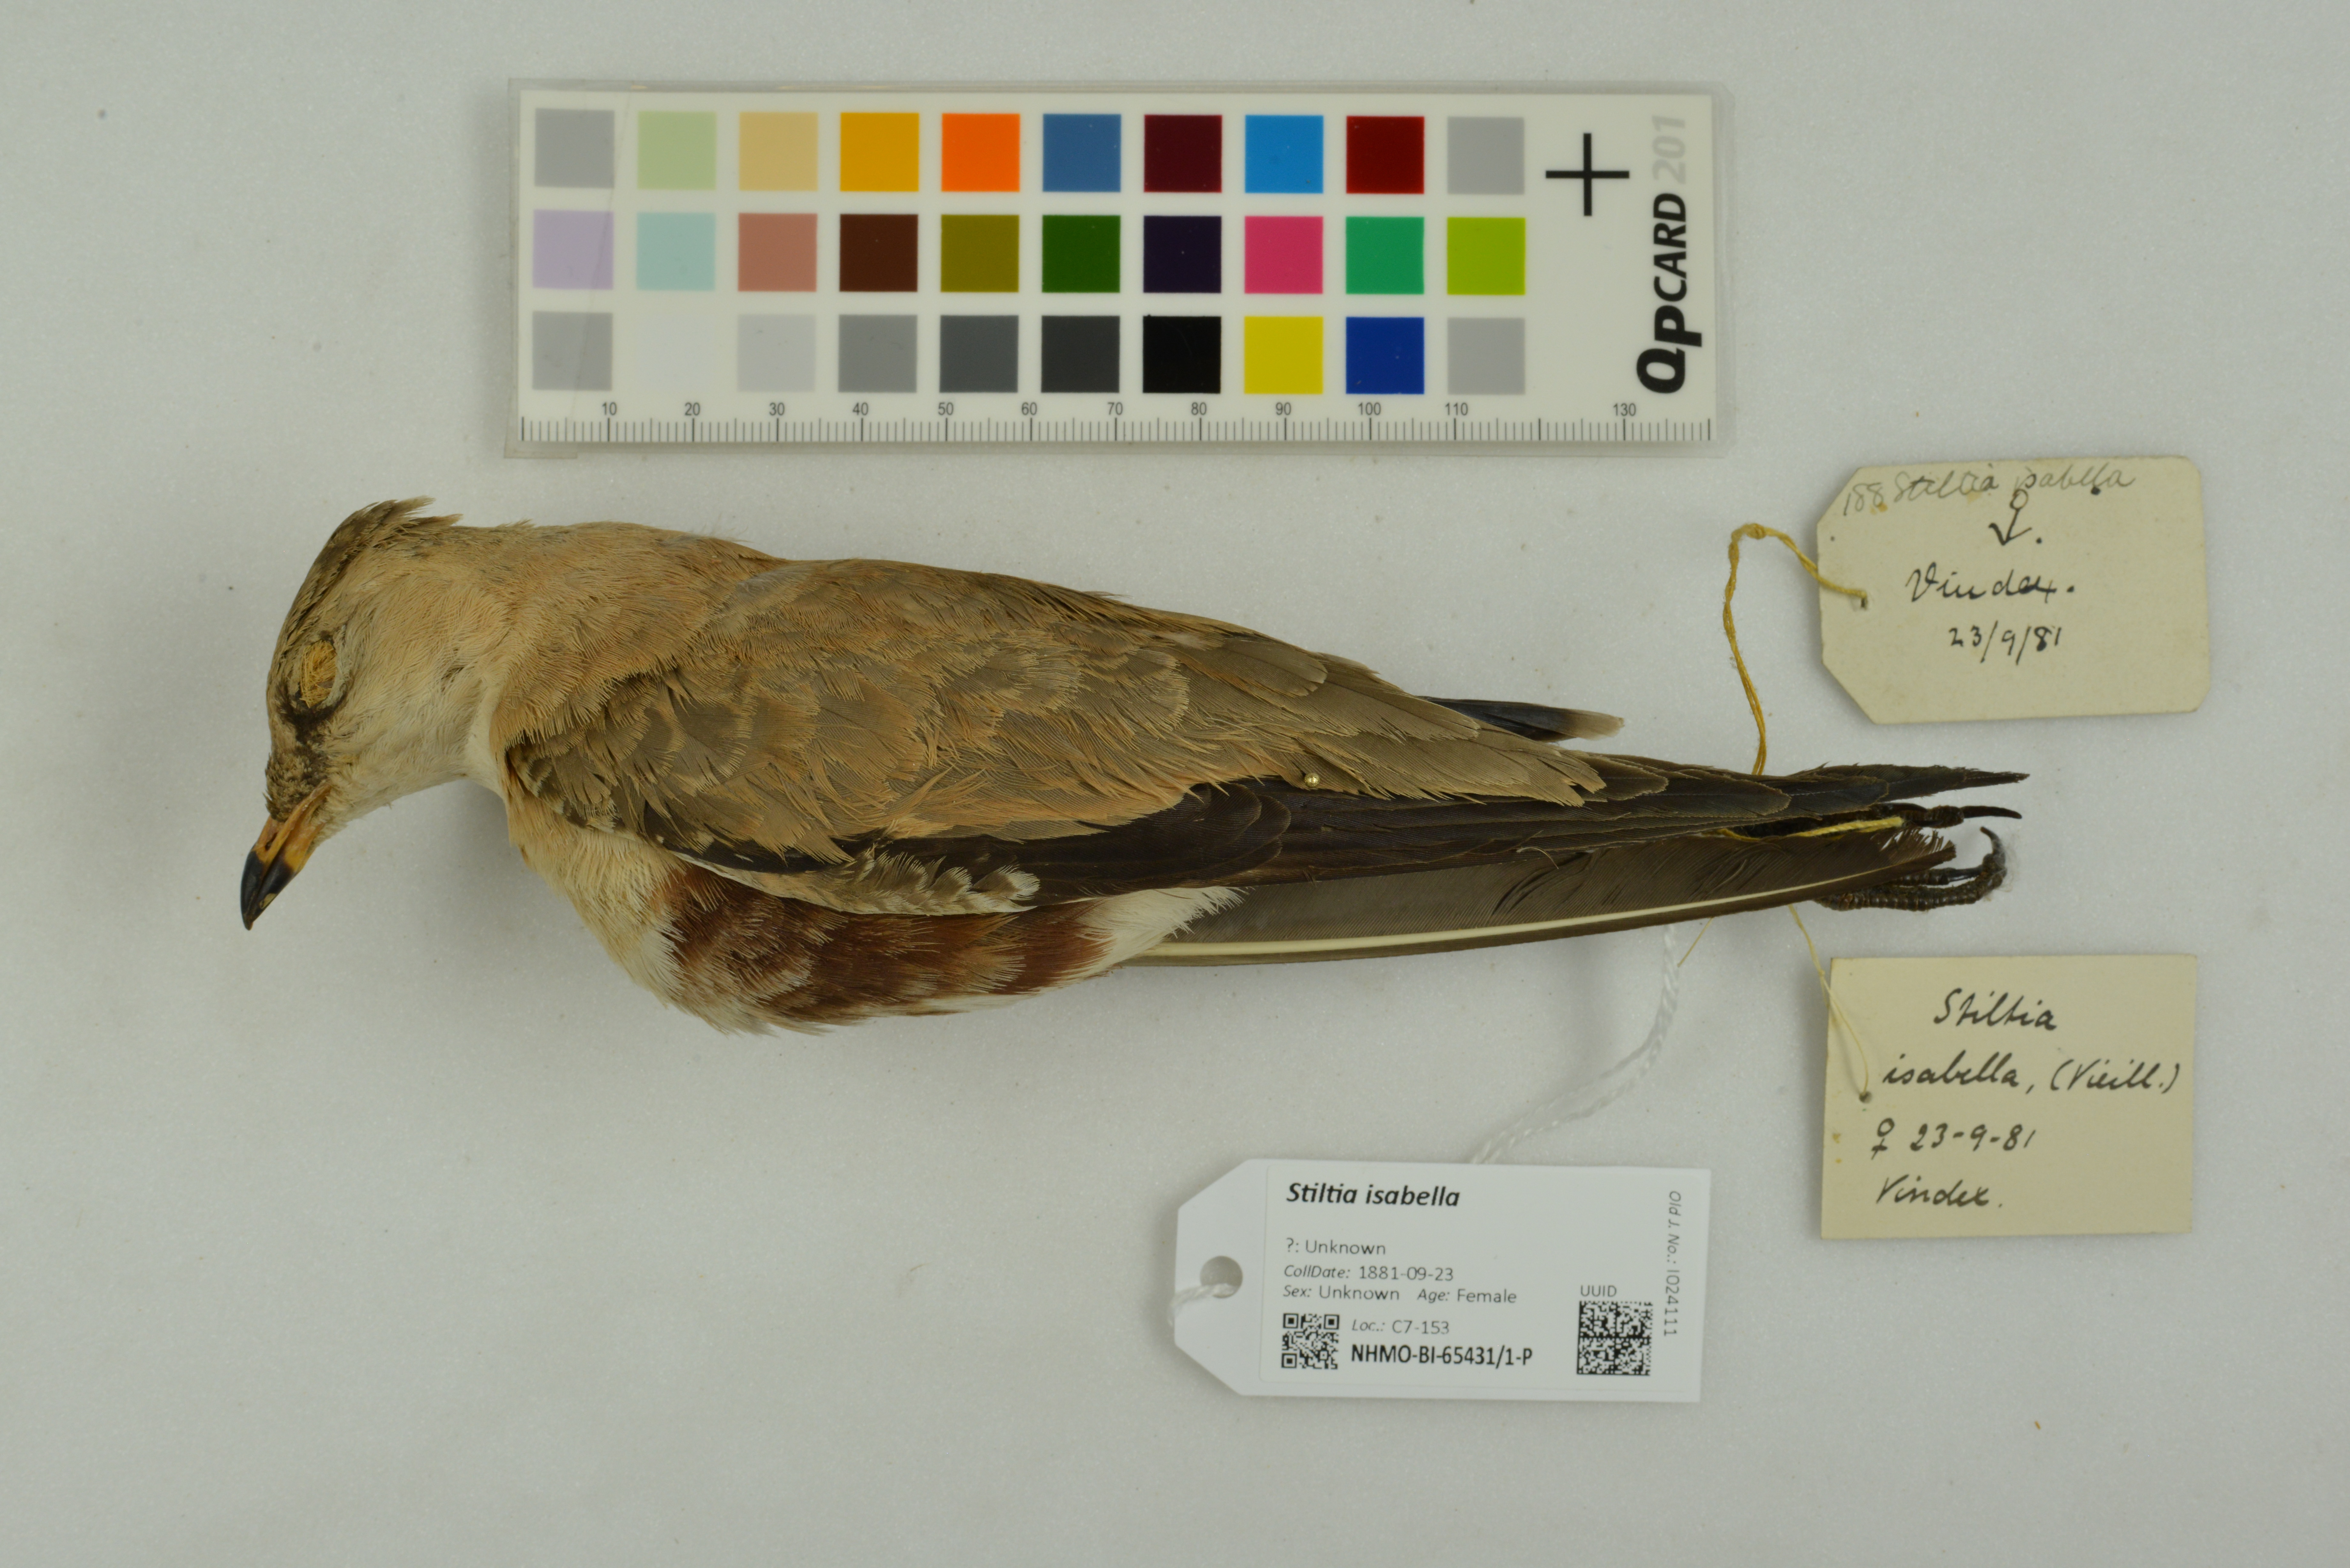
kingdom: Animalia
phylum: Chordata
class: Aves
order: Charadriiformes
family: Glareolidae
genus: Stiltia
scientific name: Stiltia isabella
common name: Australian pratincole
